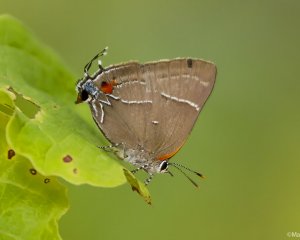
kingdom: Animalia
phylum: Arthropoda
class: Insecta
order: Lepidoptera
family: Lycaenidae
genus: Parrhasius
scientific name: Parrhasius m-album
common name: White-m Hairstreak
